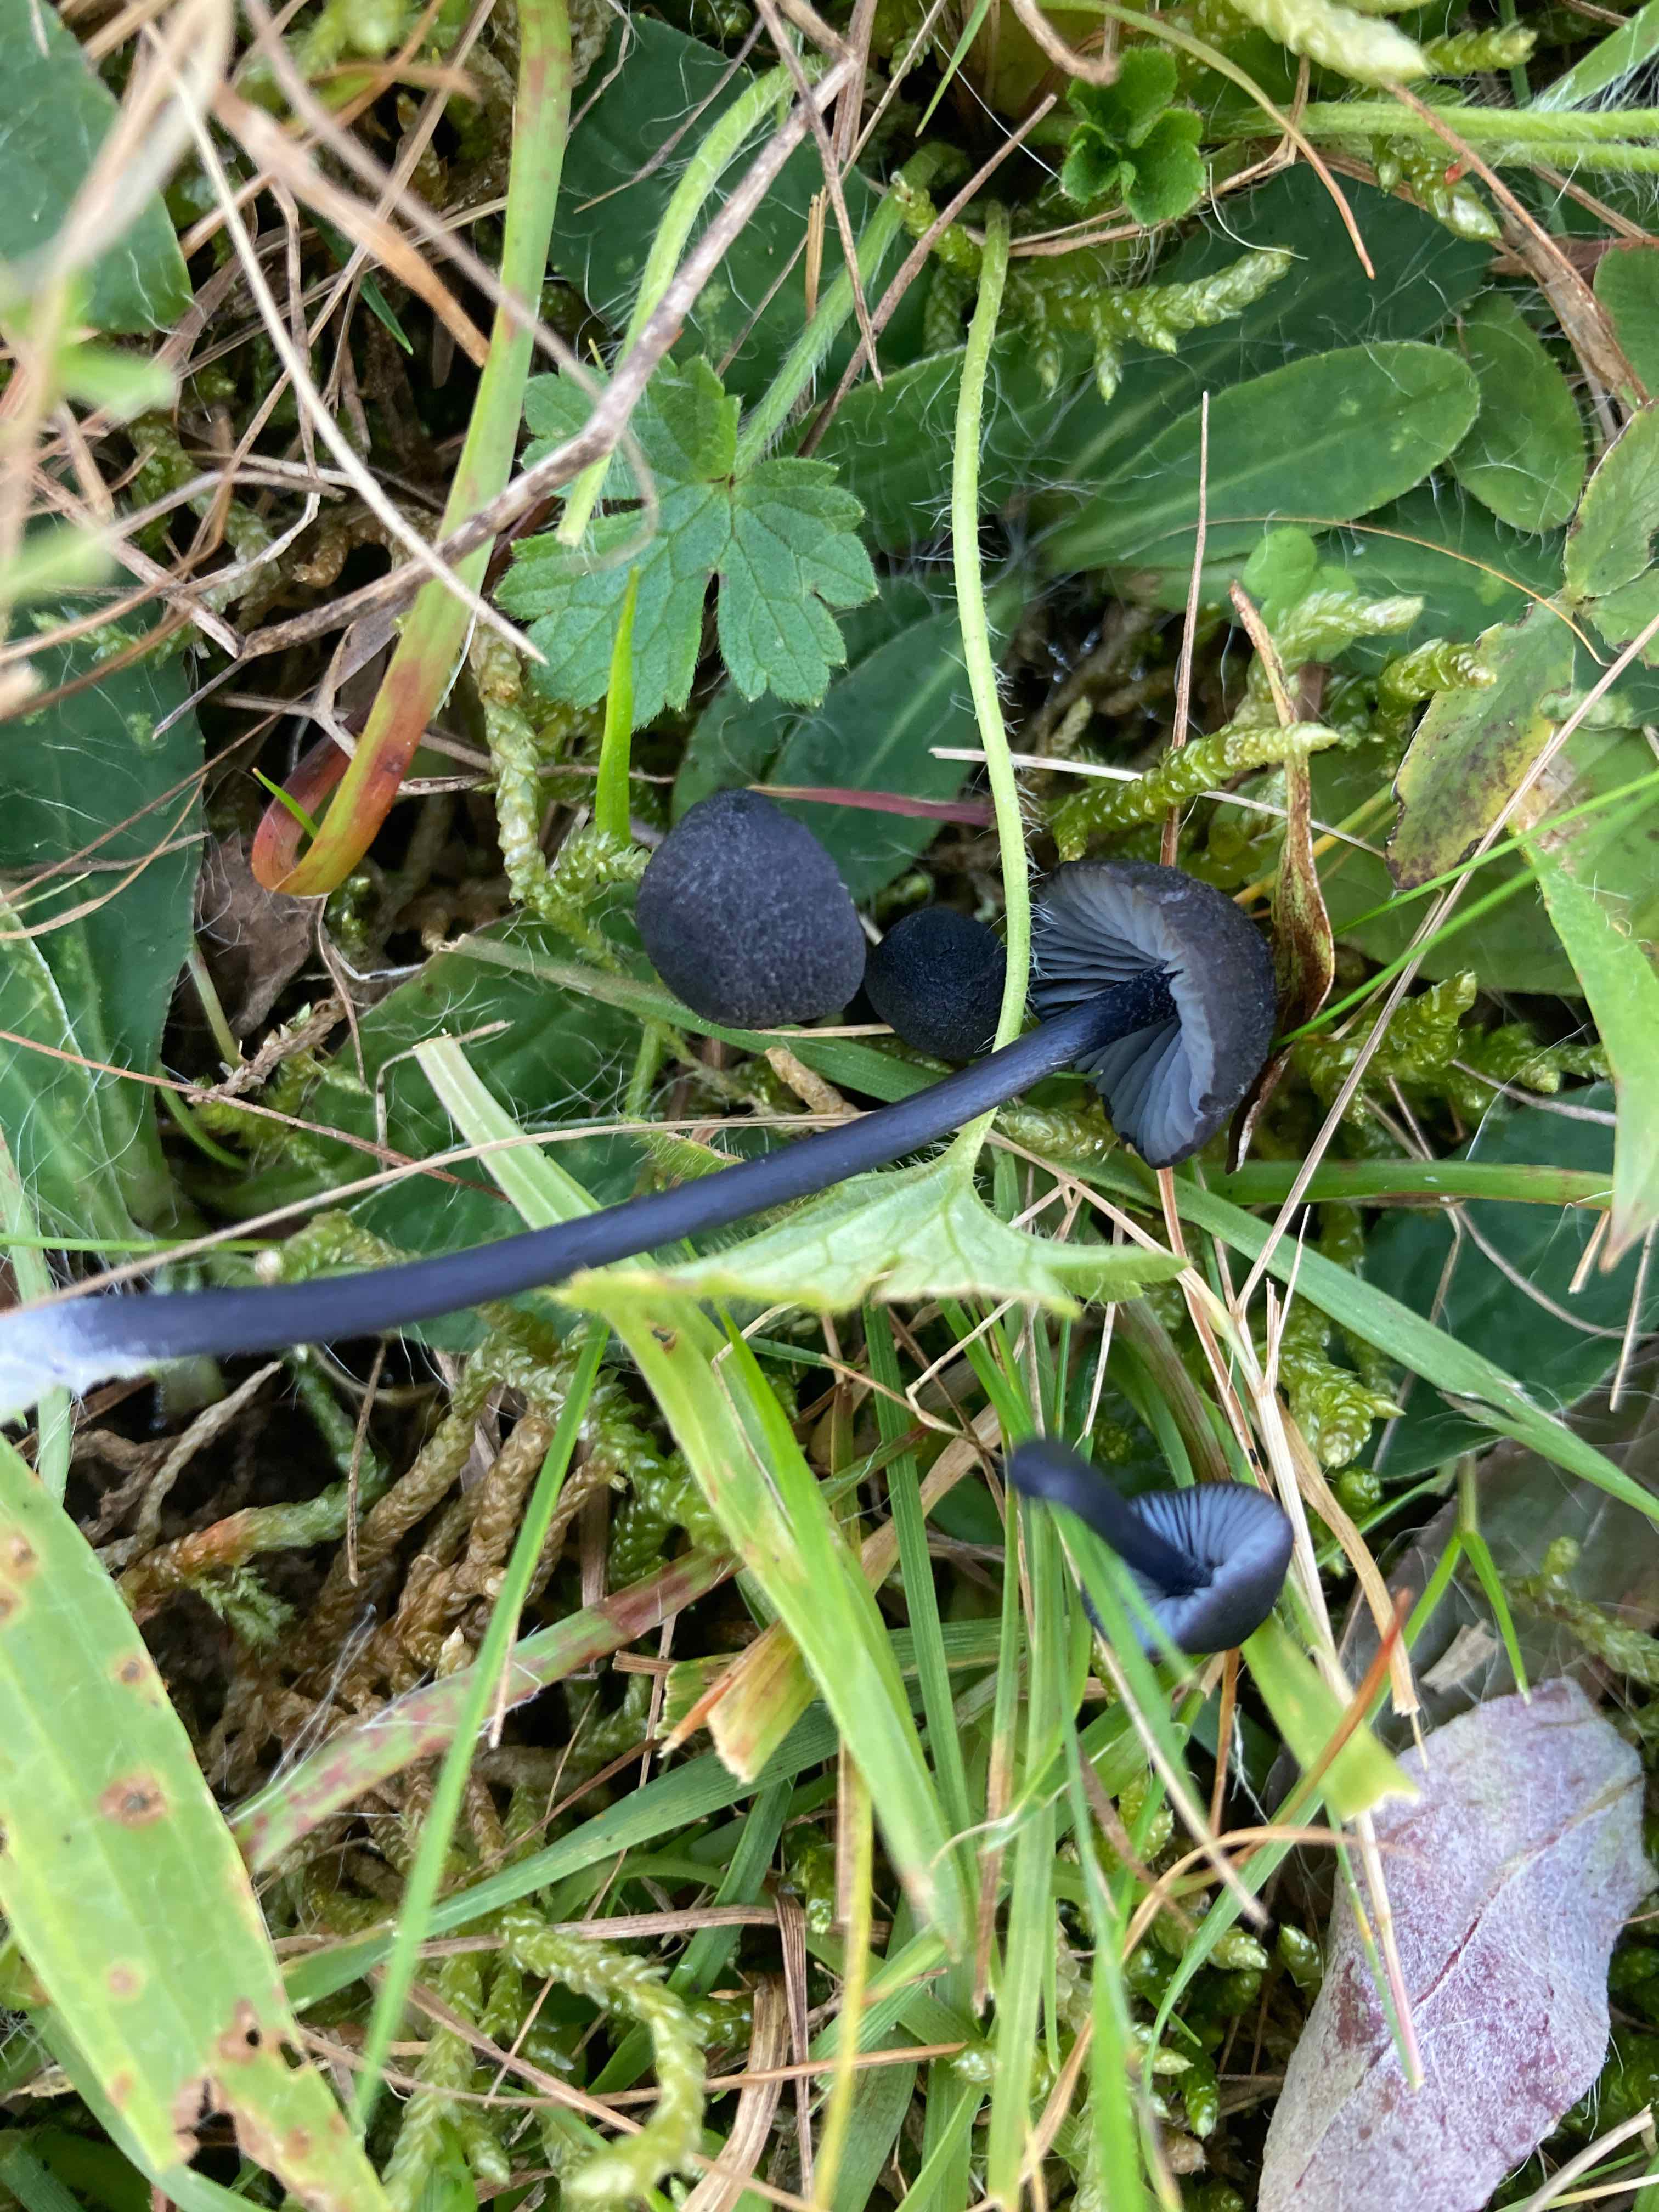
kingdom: Fungi
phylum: Basidiomycota
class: Agaricomycetes
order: Agaricales
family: Entolomataceae
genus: Entoloma
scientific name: Entoloma chalybeum
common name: blåbladet rødblad
